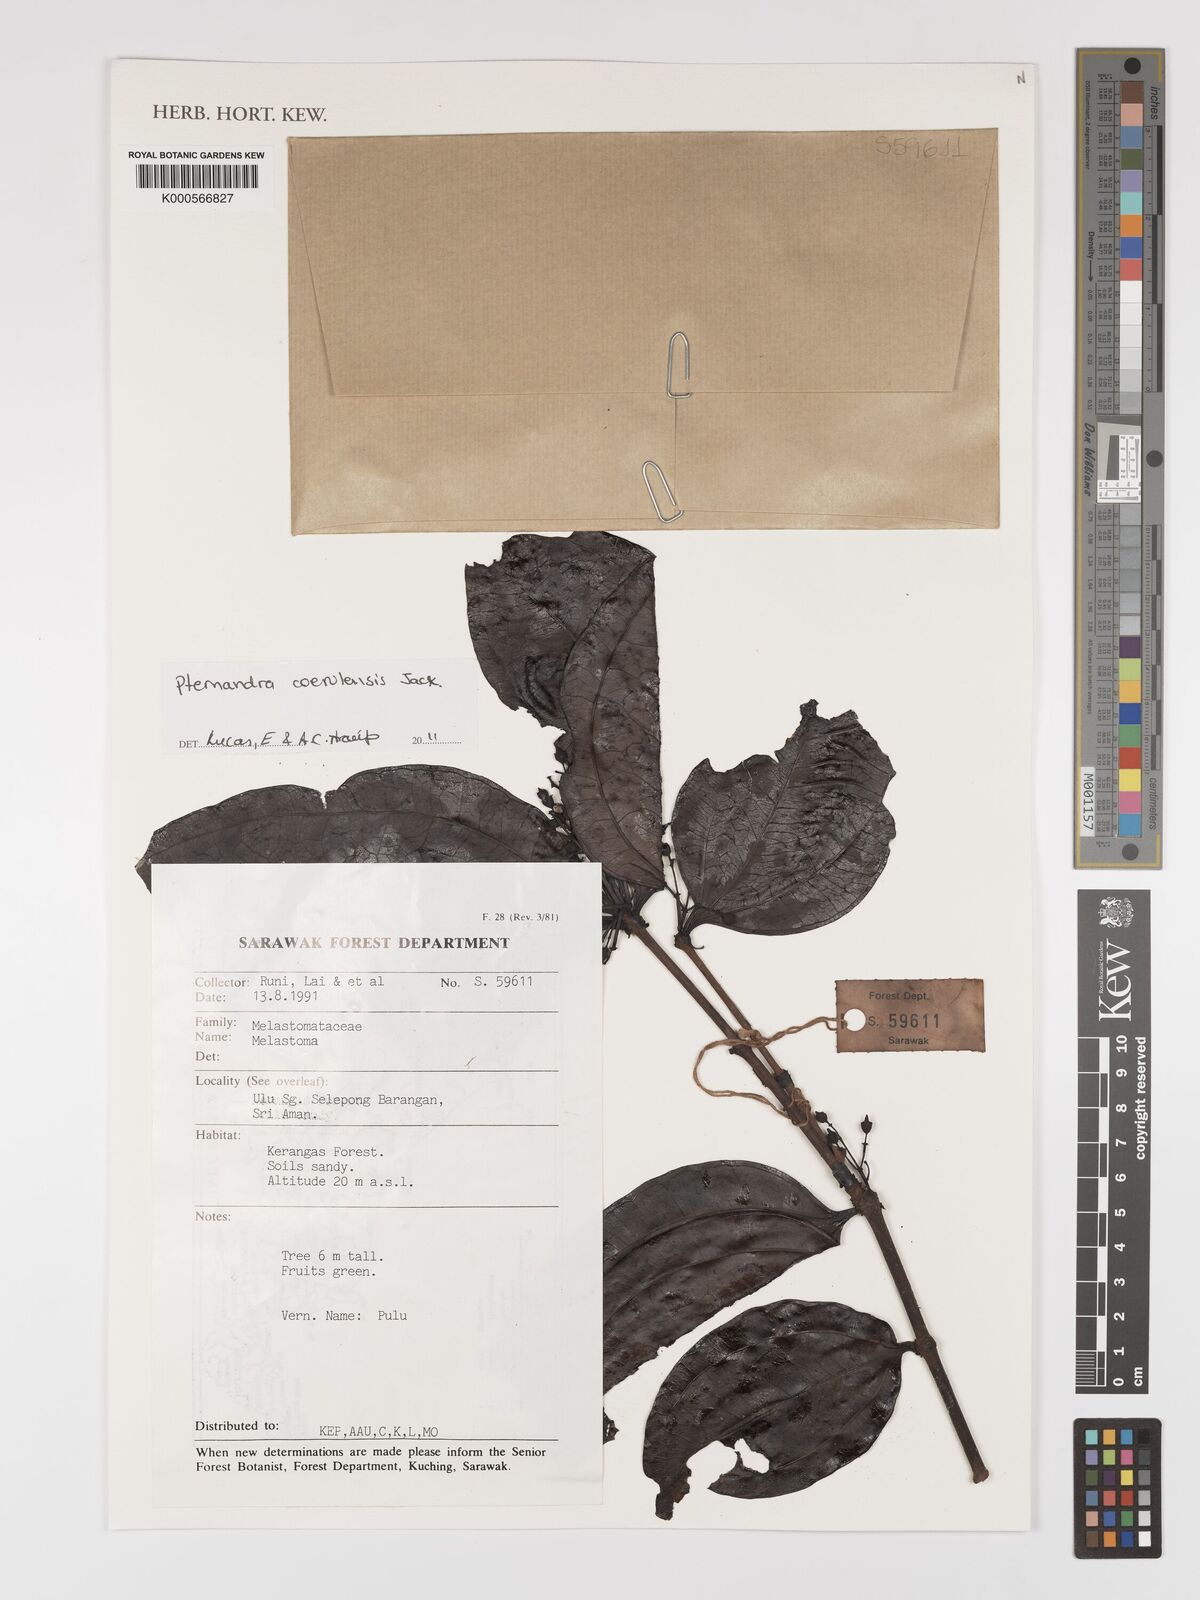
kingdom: Plantae
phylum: Tracheophyta
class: Magnoliopsida
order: Myrtales
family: Melastomataceae
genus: Pternandra
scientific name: Pternandra
